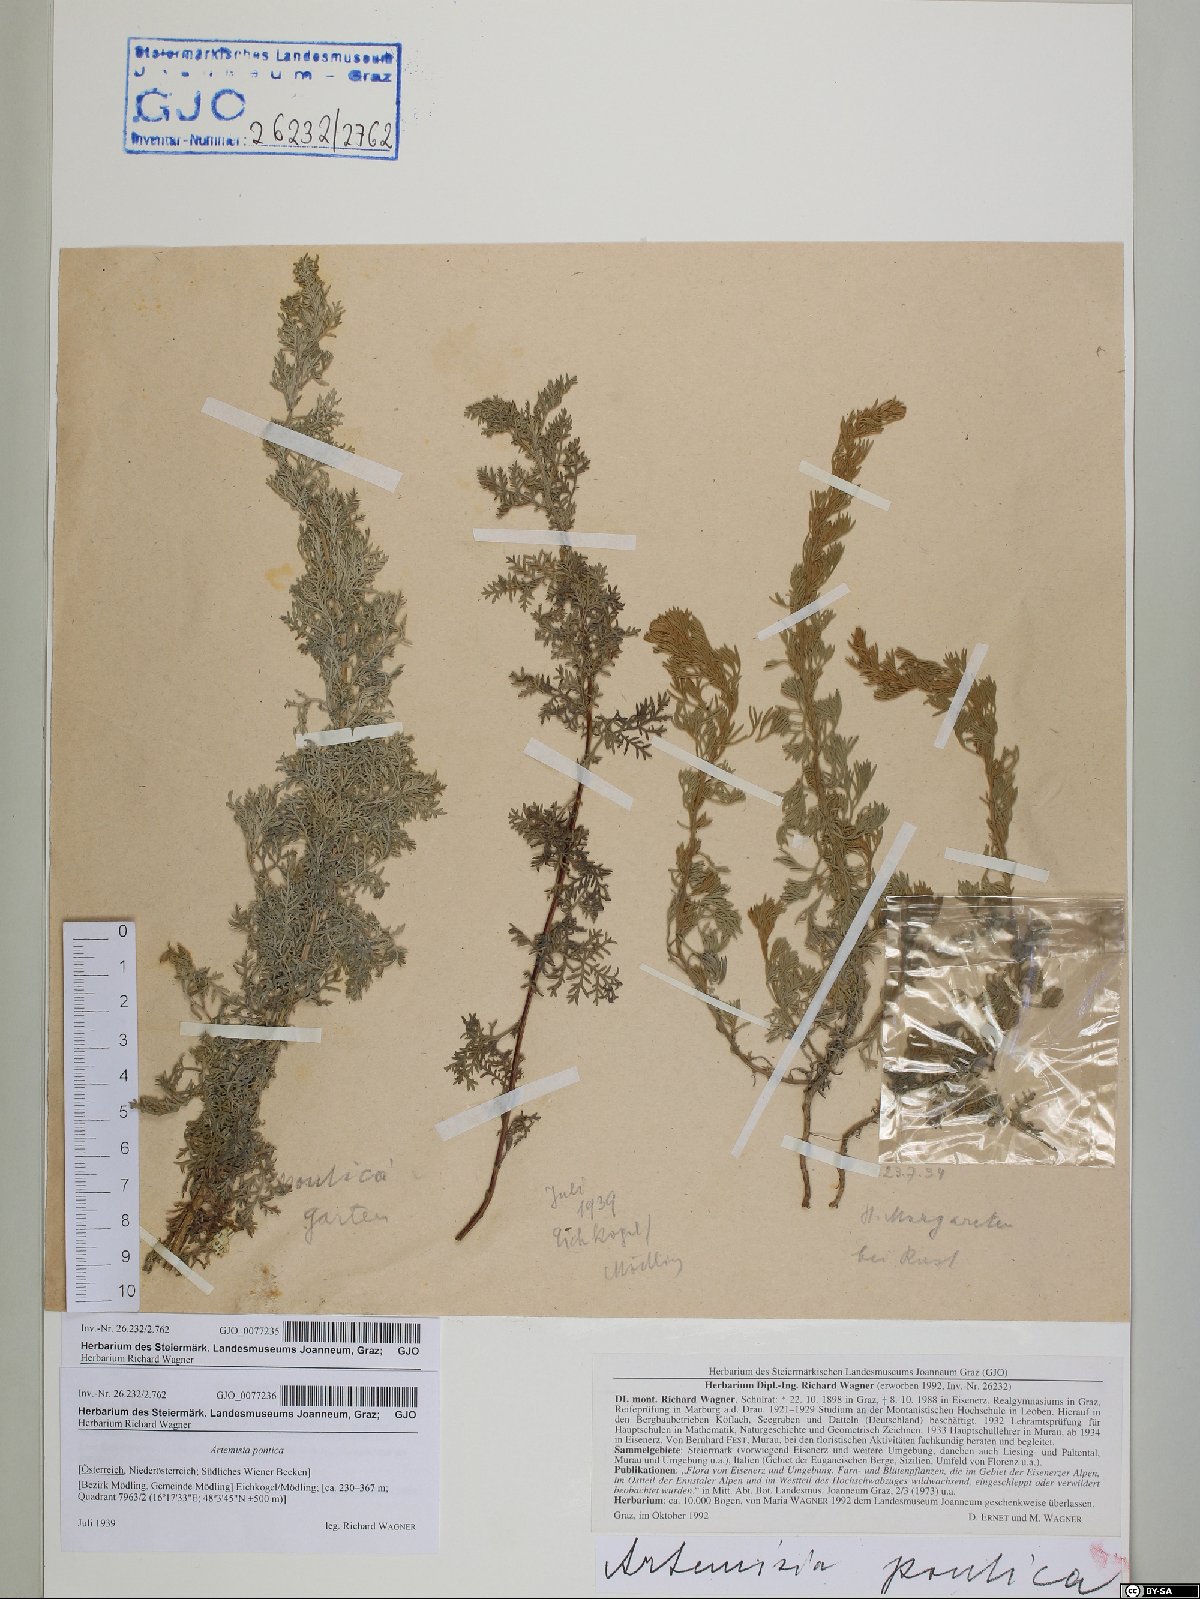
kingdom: Plantae
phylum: Tracheophyta
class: Magnoliopsida
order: Asterales
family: Asteraceae
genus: Artemisia
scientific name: Artemisia pontica
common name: Roman wormwood
